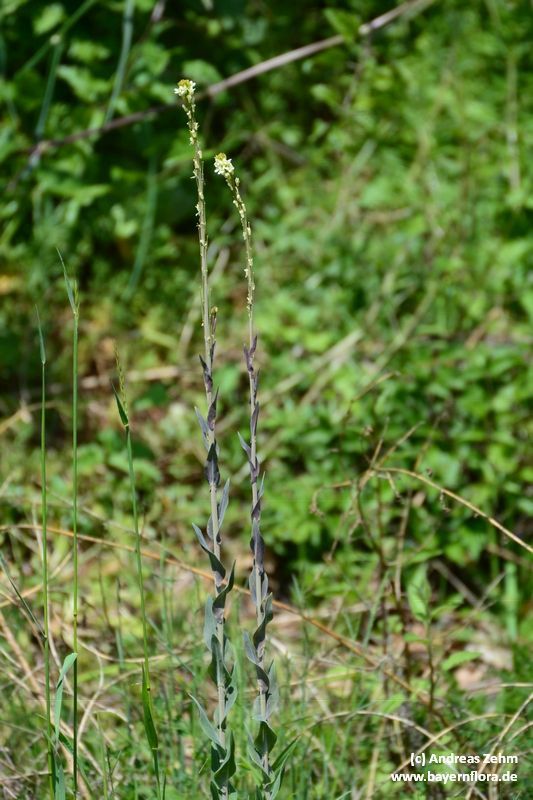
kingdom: Plantae
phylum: Tracheophyta
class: Magnoliopsida
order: Brassicales
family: Brassicaceae
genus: Turritis
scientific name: Turritis glabra
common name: Tower rockcress
